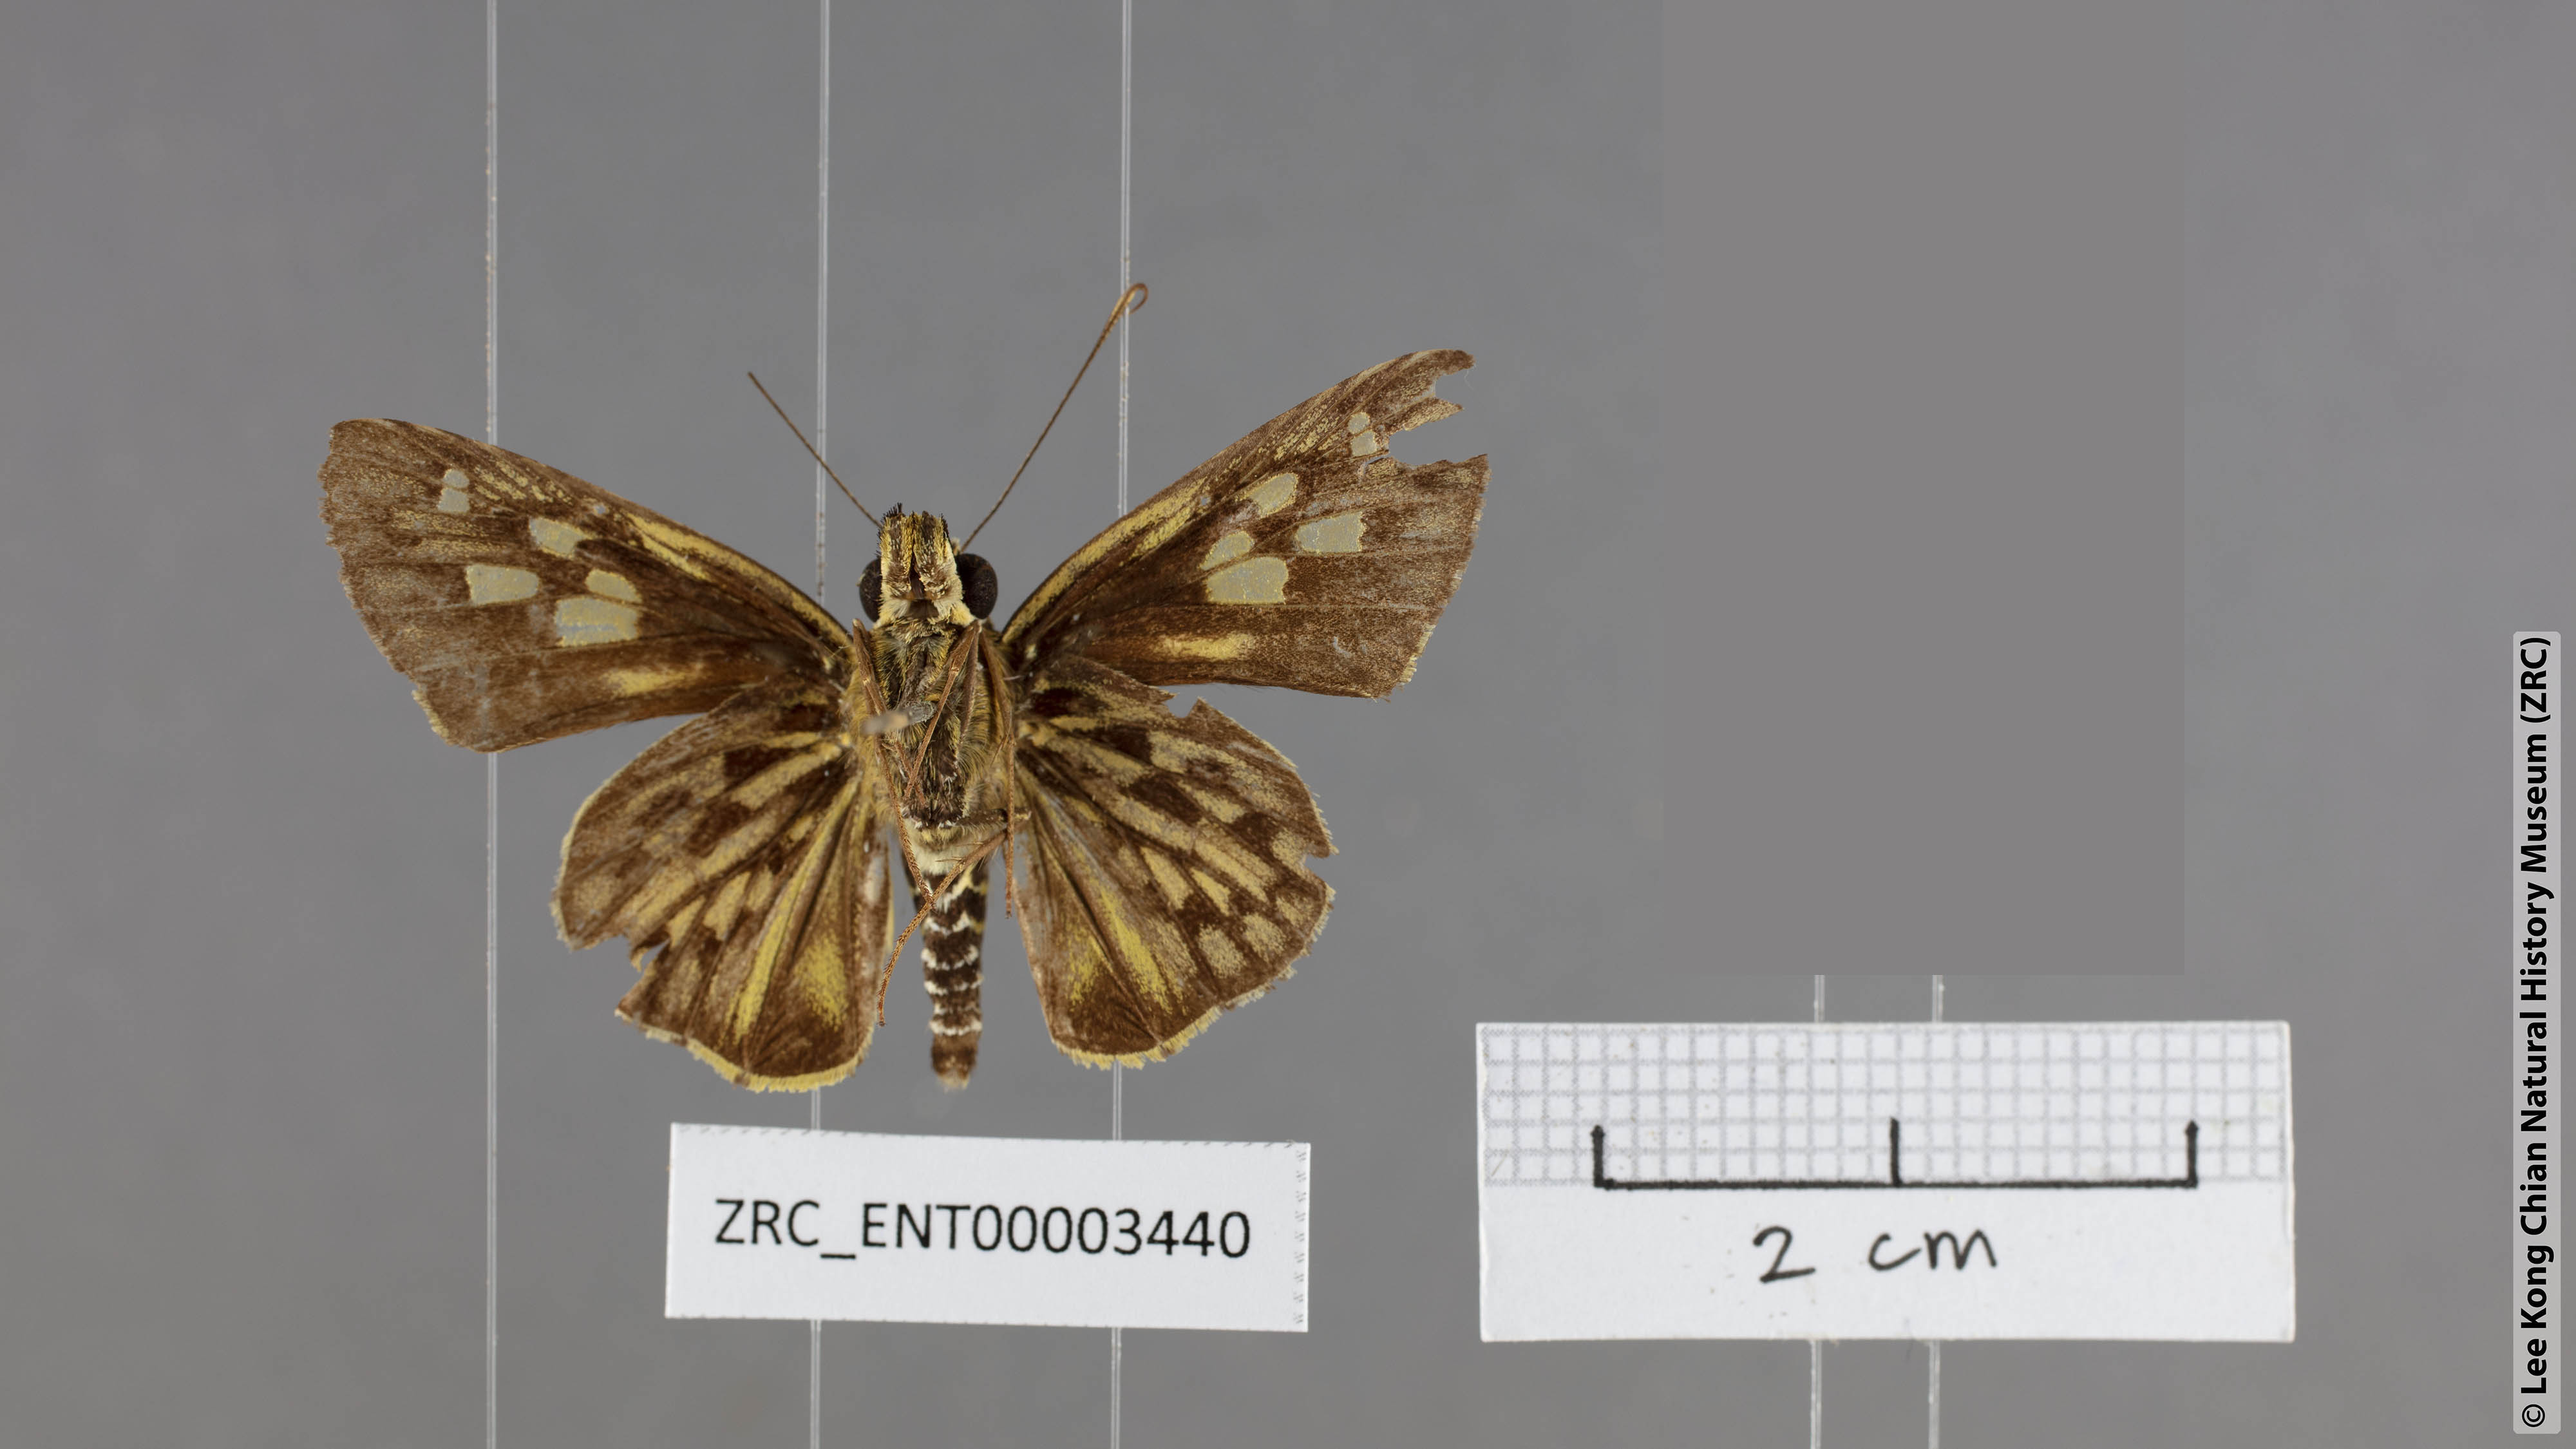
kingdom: Animalia
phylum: Arthropoda
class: Insecta
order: Lepidoptera
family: Hesperiidae
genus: Plastingia
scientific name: Plastingia pellonia
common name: Yellow chequered lancer
